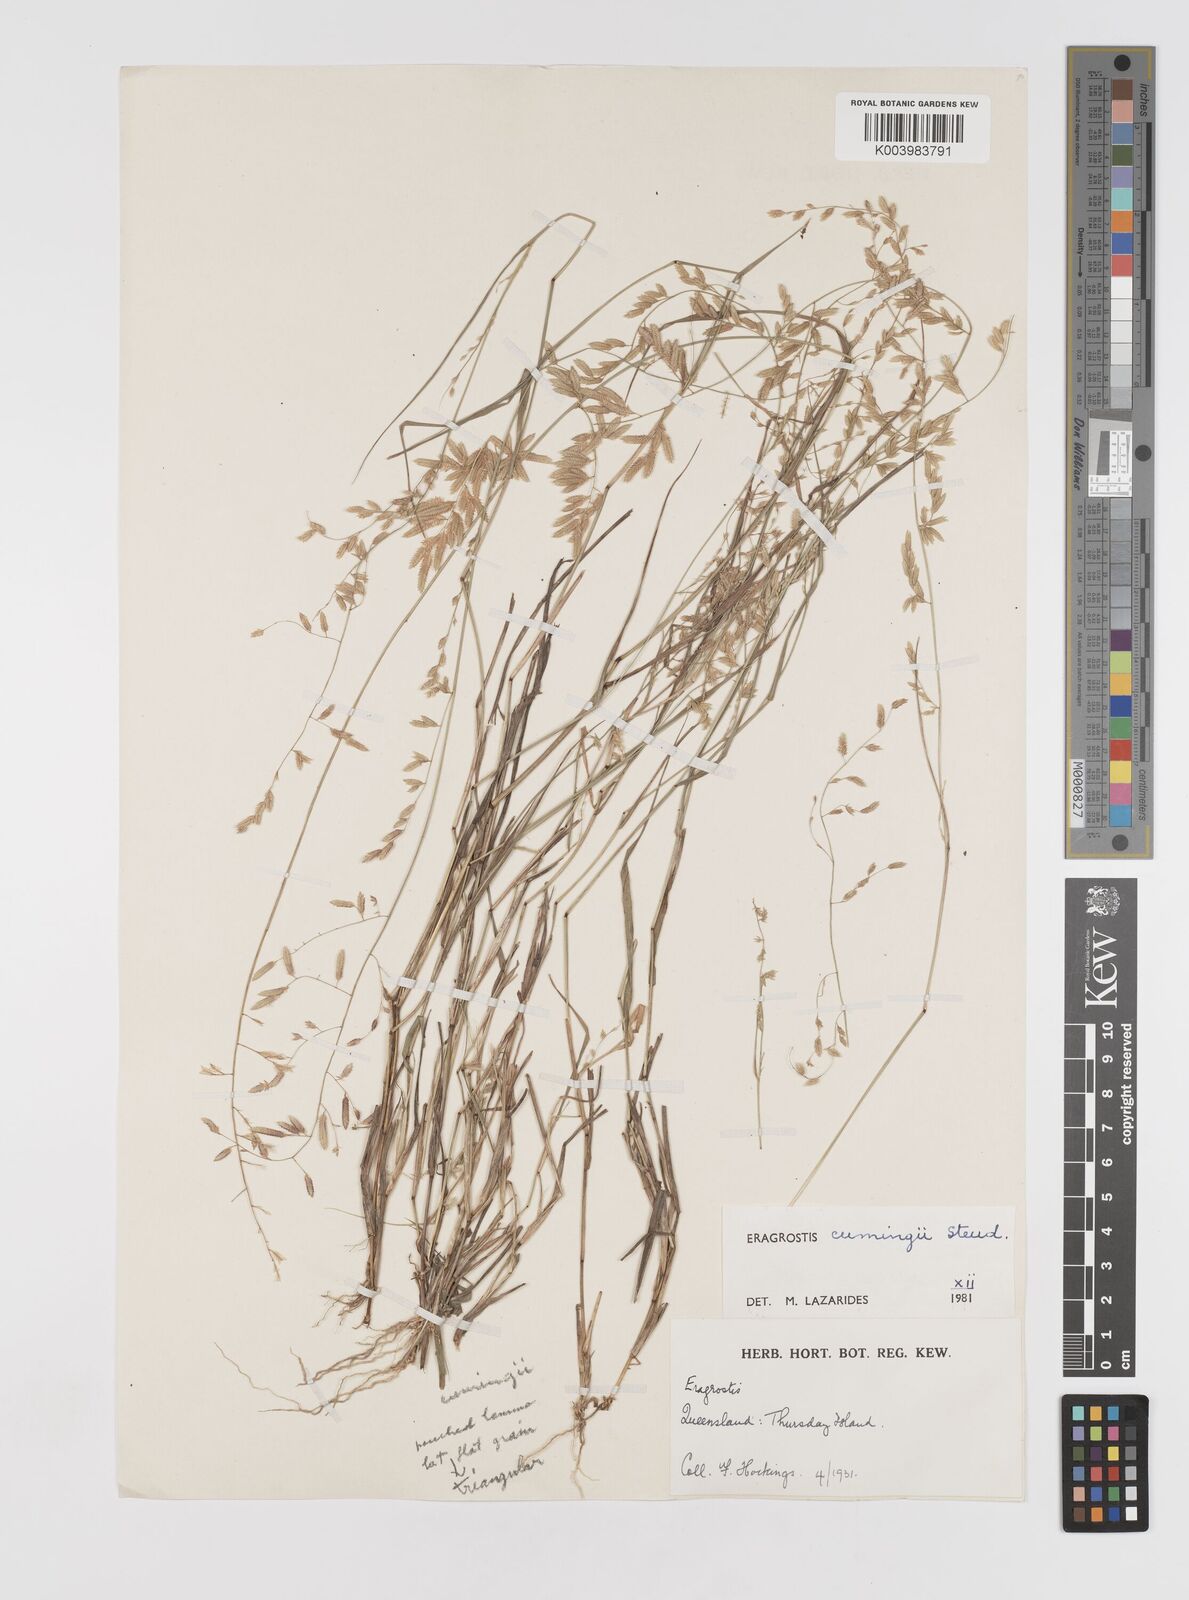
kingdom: Plantae
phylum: Tracheophyta
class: Liliopsida
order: Poales
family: Poaceae
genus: Eragrostis
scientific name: Eragrostis cumingii
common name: Cuming's lovegrass
